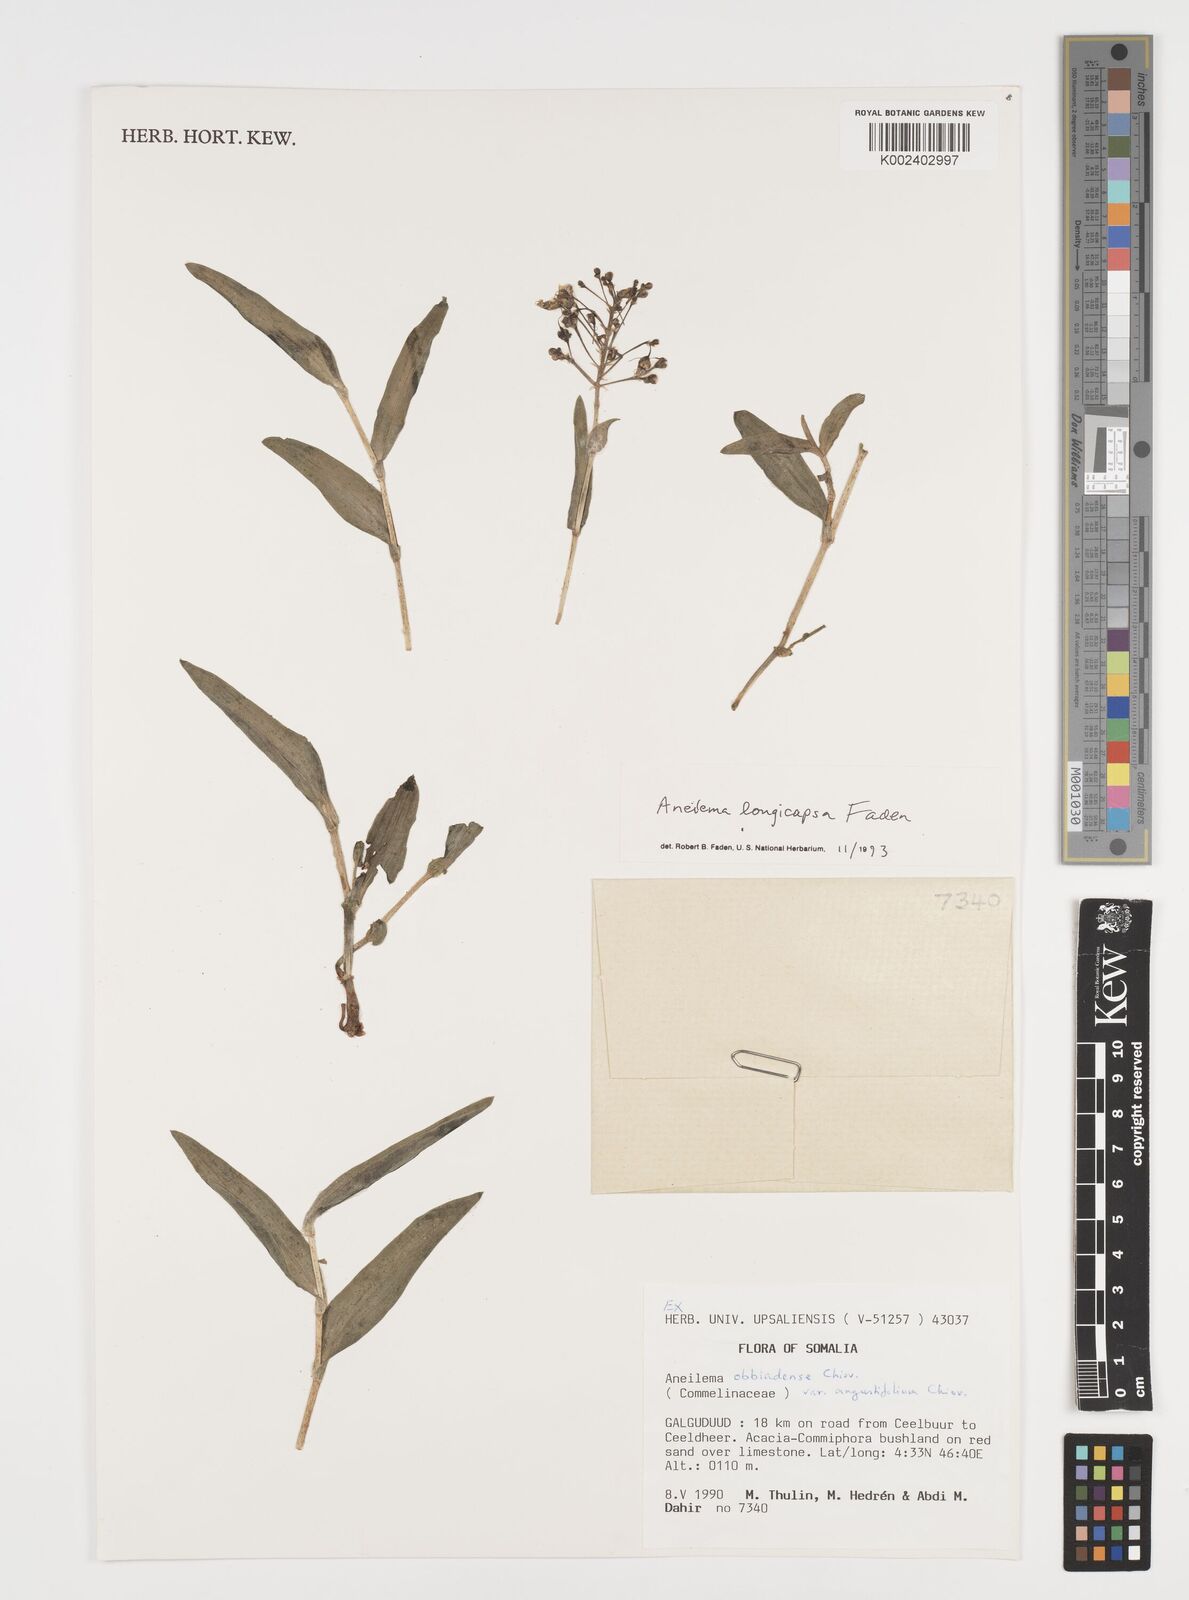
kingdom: Plantae
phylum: Tracheophyta
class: Liliopsida
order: Commelinales
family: Commelinaceae
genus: Aneilema
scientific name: Aneilema longicapsa
